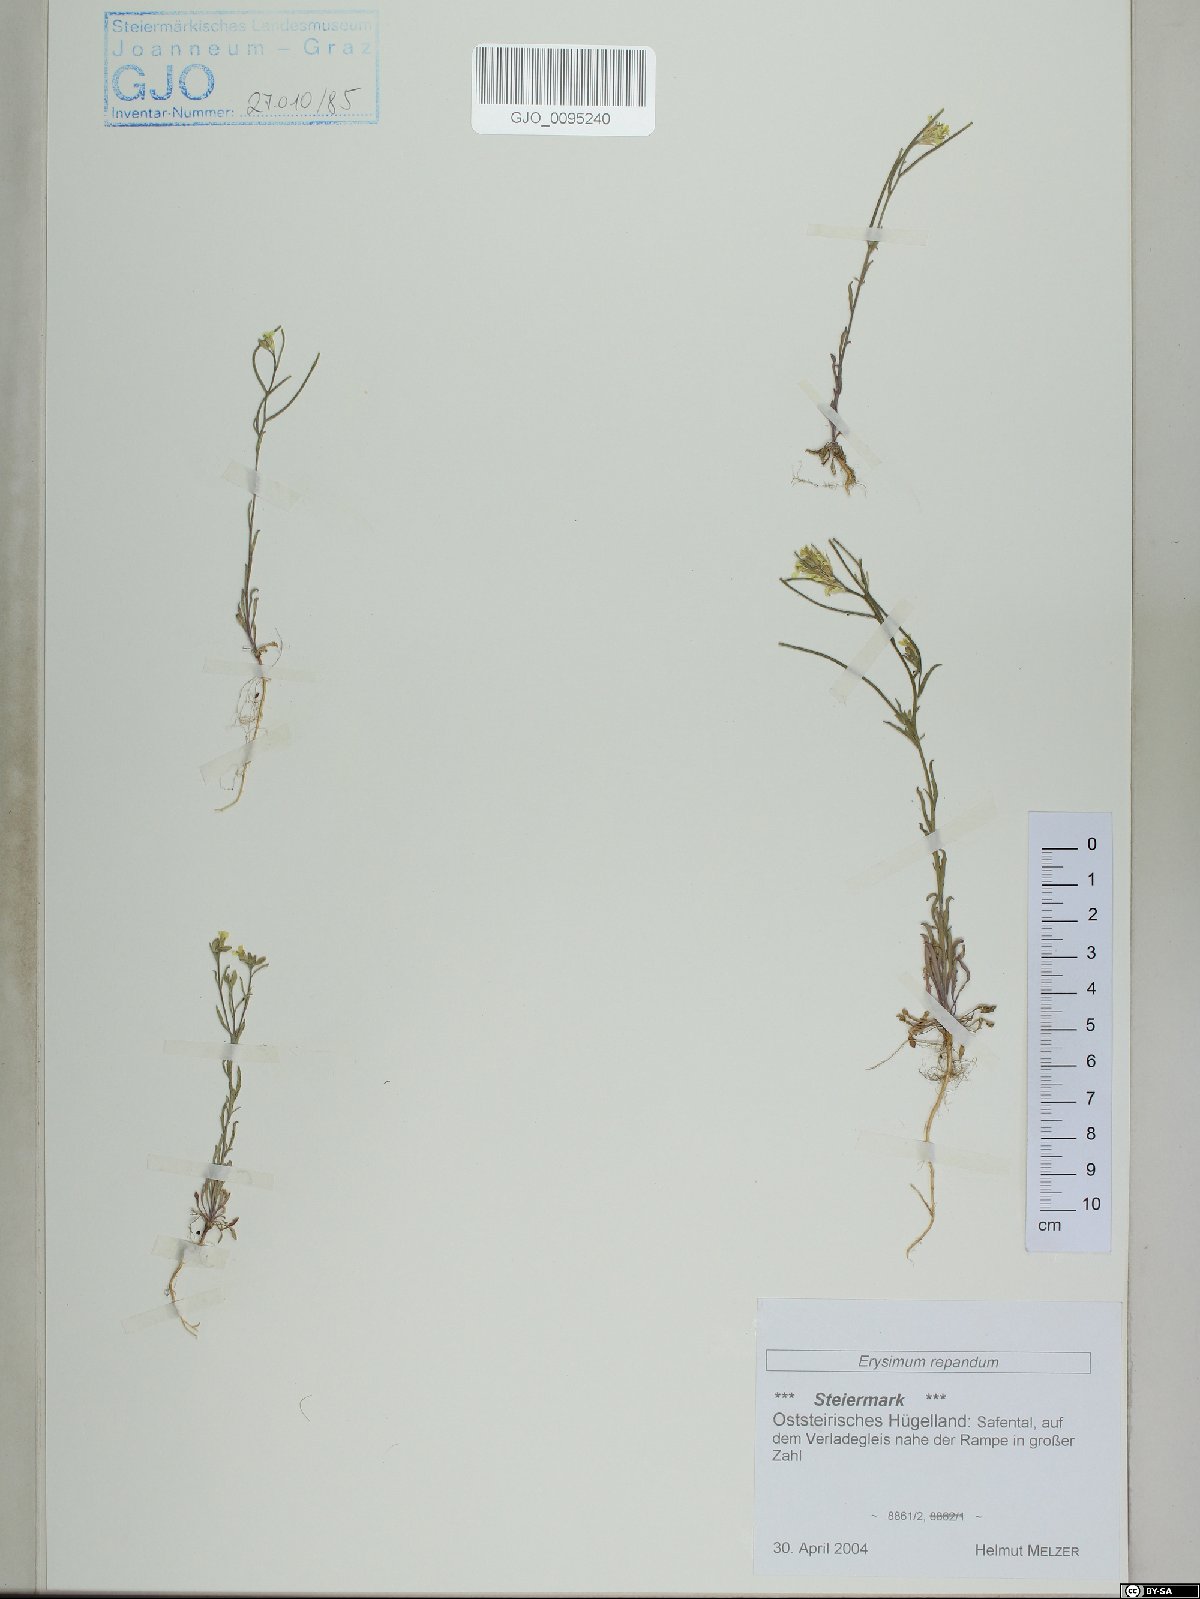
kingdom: Plantae
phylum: Tracheophyta
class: Magnoliopsida
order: Brassicales
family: Brassicaceae
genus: Erysimum
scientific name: Erysimum repandum
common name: Spreading wallflower
